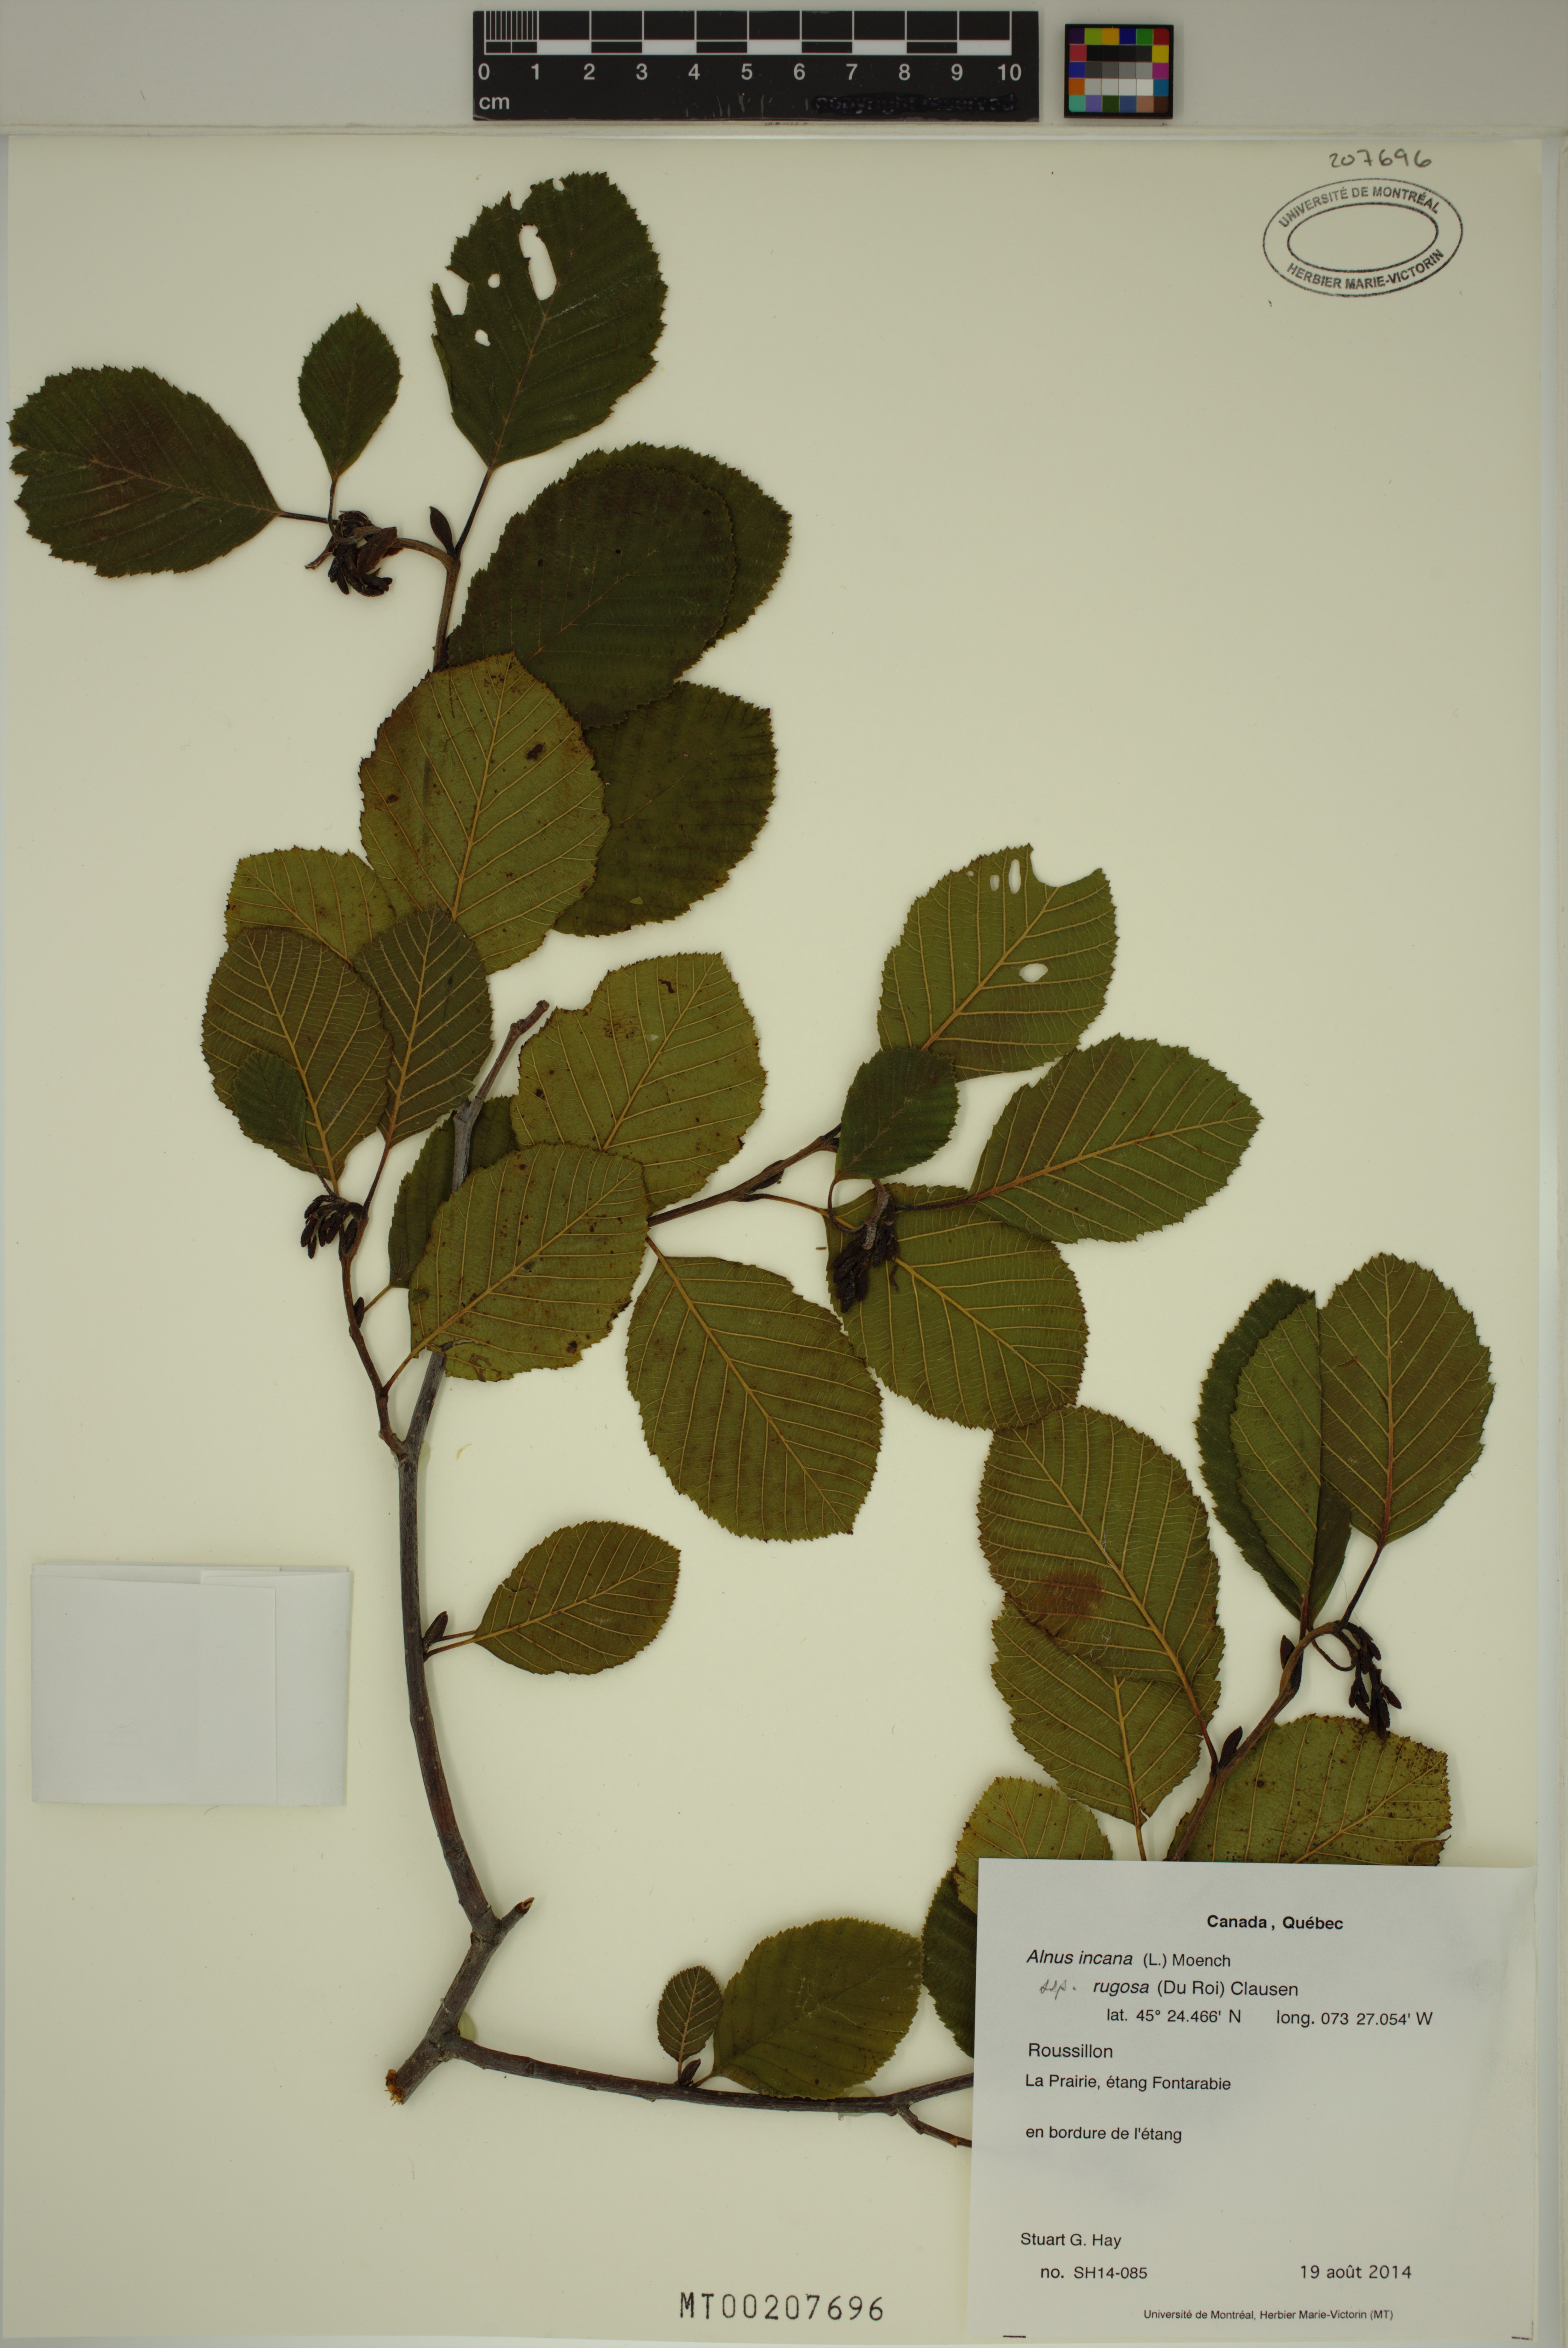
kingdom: Plantae
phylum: Tracheophyta
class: Magnoliopsida
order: Fagales
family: Betulaceae
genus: Alnus
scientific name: Alnus incana
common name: Grey alder
